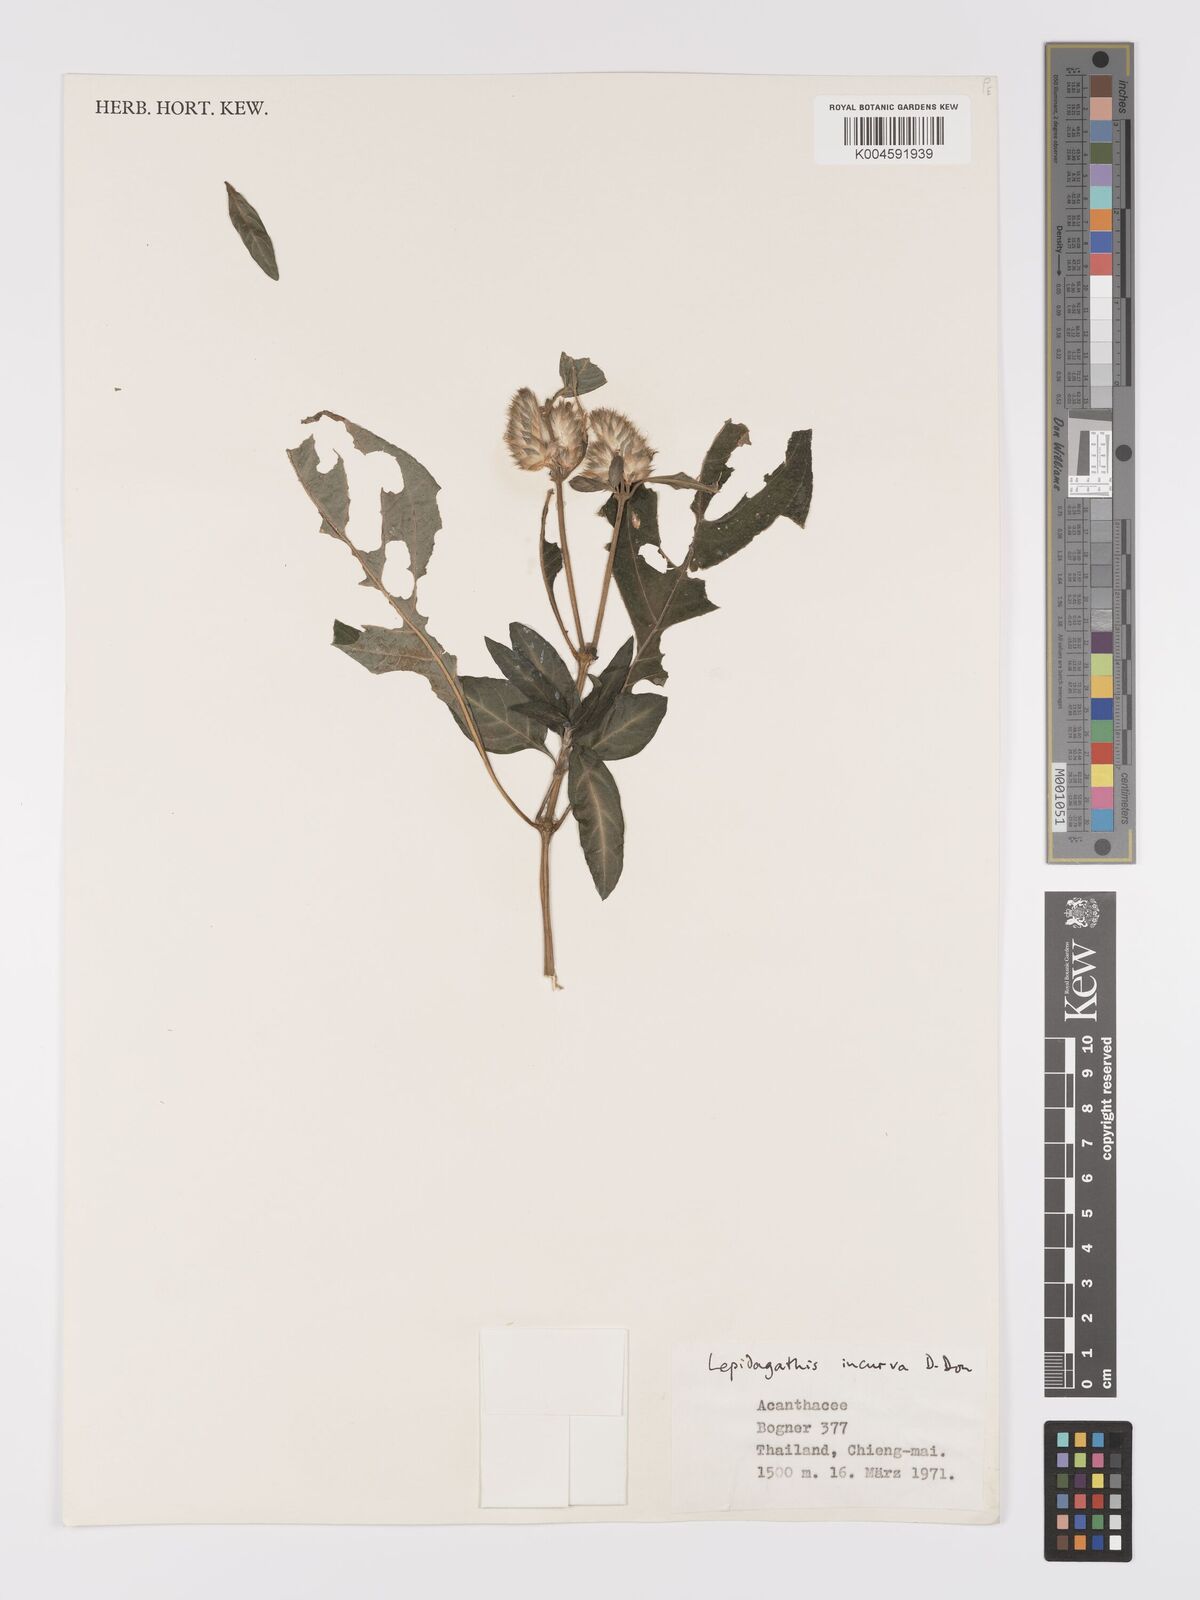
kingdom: Plantae
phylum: Tracheophyta
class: Magnoliopsida
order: Lamiales
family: Acanthaceae
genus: Lepidagathis
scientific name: Lepidagathis incurva
